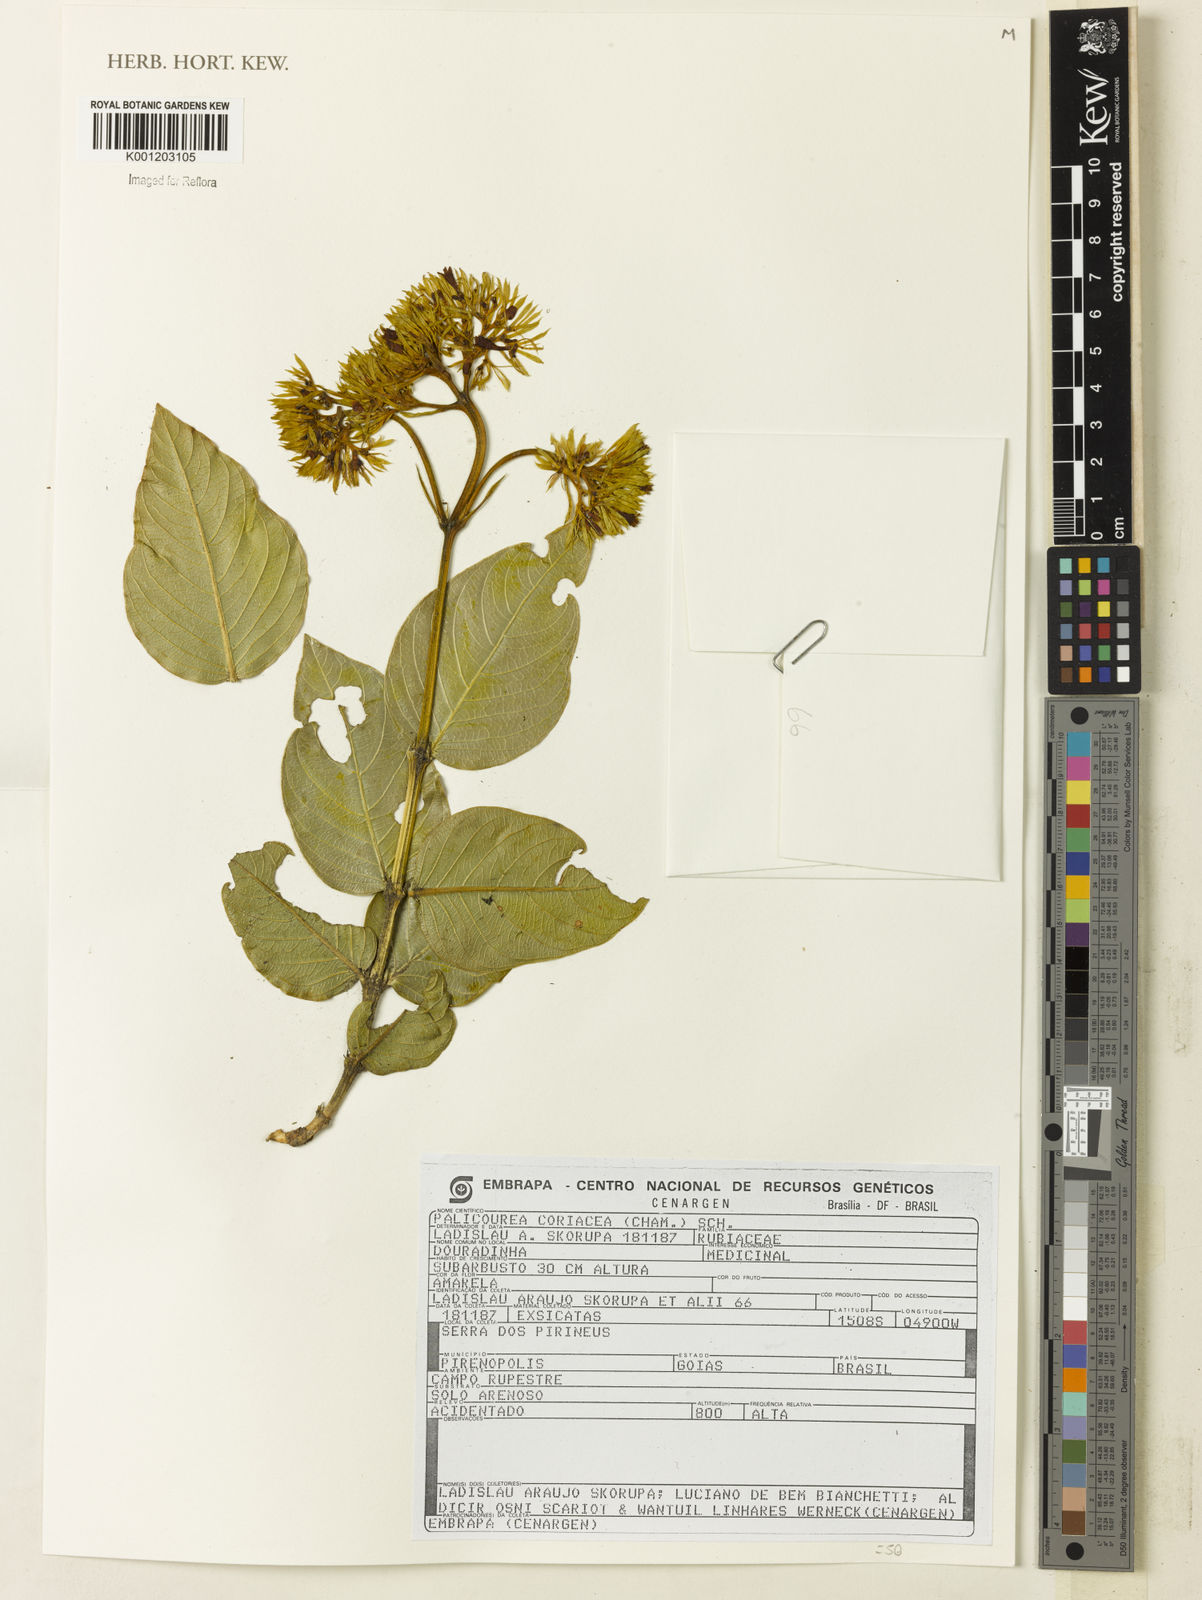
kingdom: Plantae
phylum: Tracheophyta
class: Magnoliopsida
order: Gentianales
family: Rubiaceae
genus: Palicourea
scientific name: Palicourea coriacea
